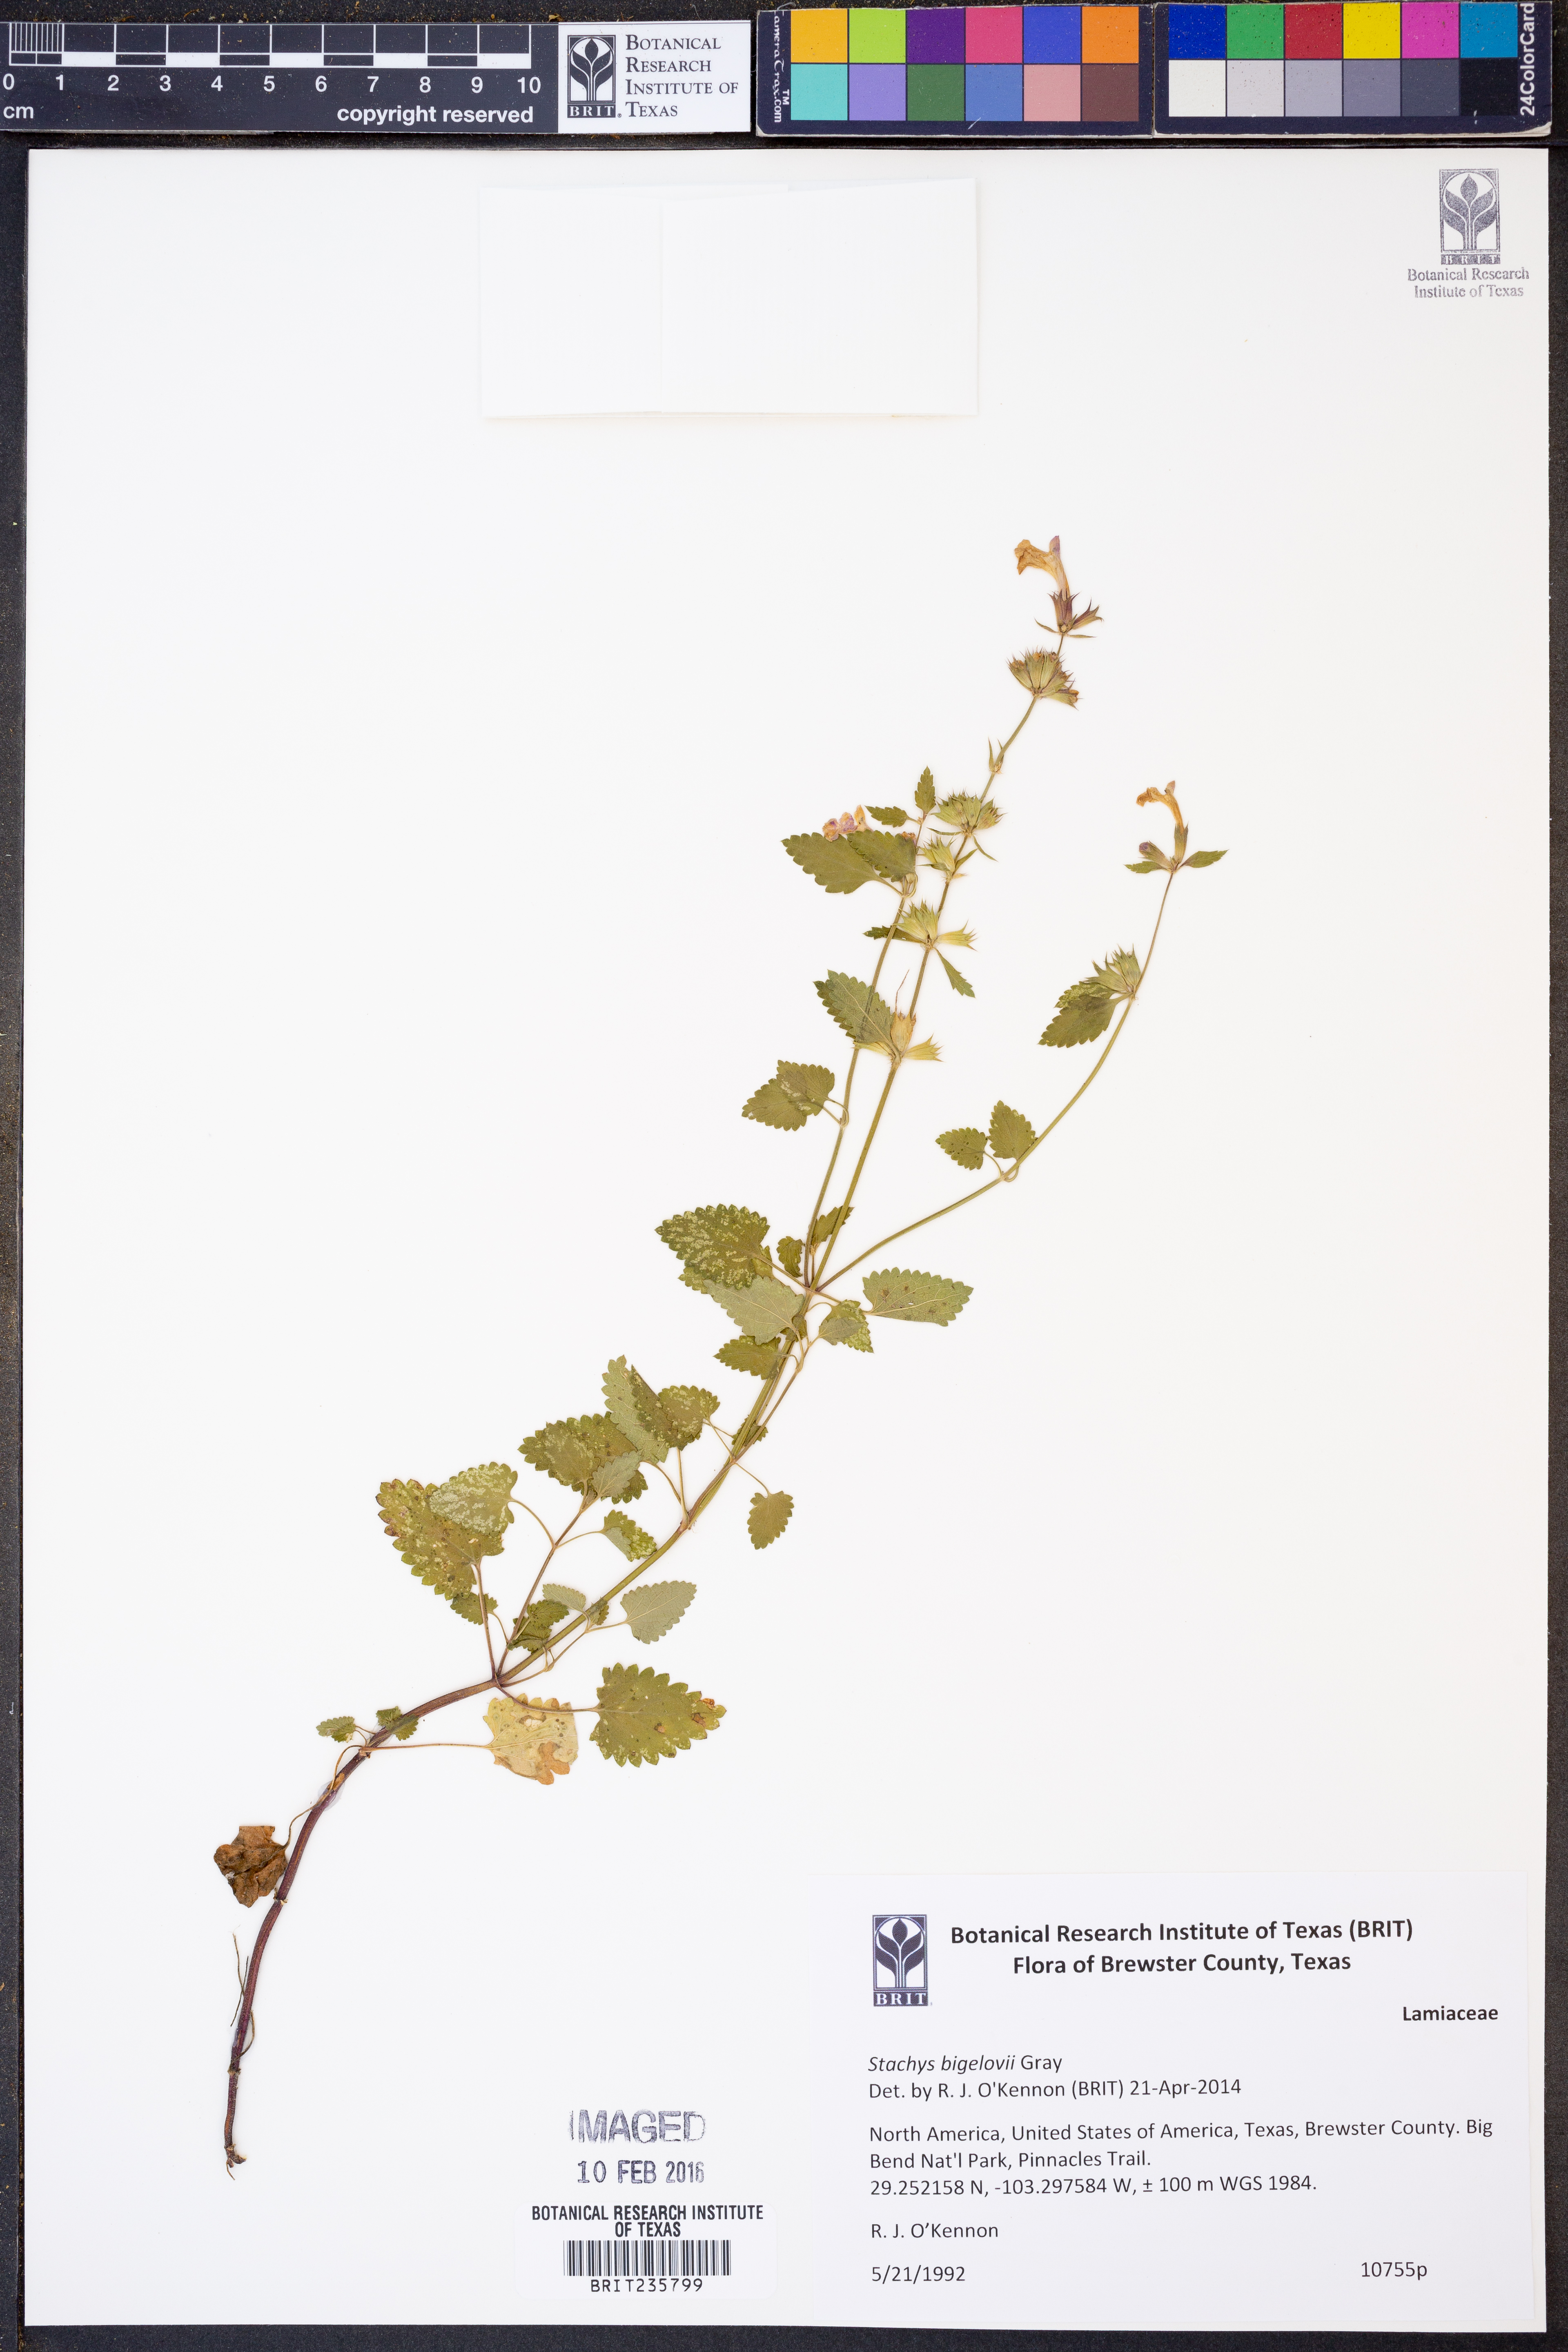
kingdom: Plantae
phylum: Tracheophyta
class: Magnoliopsida
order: Lamiales
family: Lamiaceae
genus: Stachys
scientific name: Stachys bigelovii
